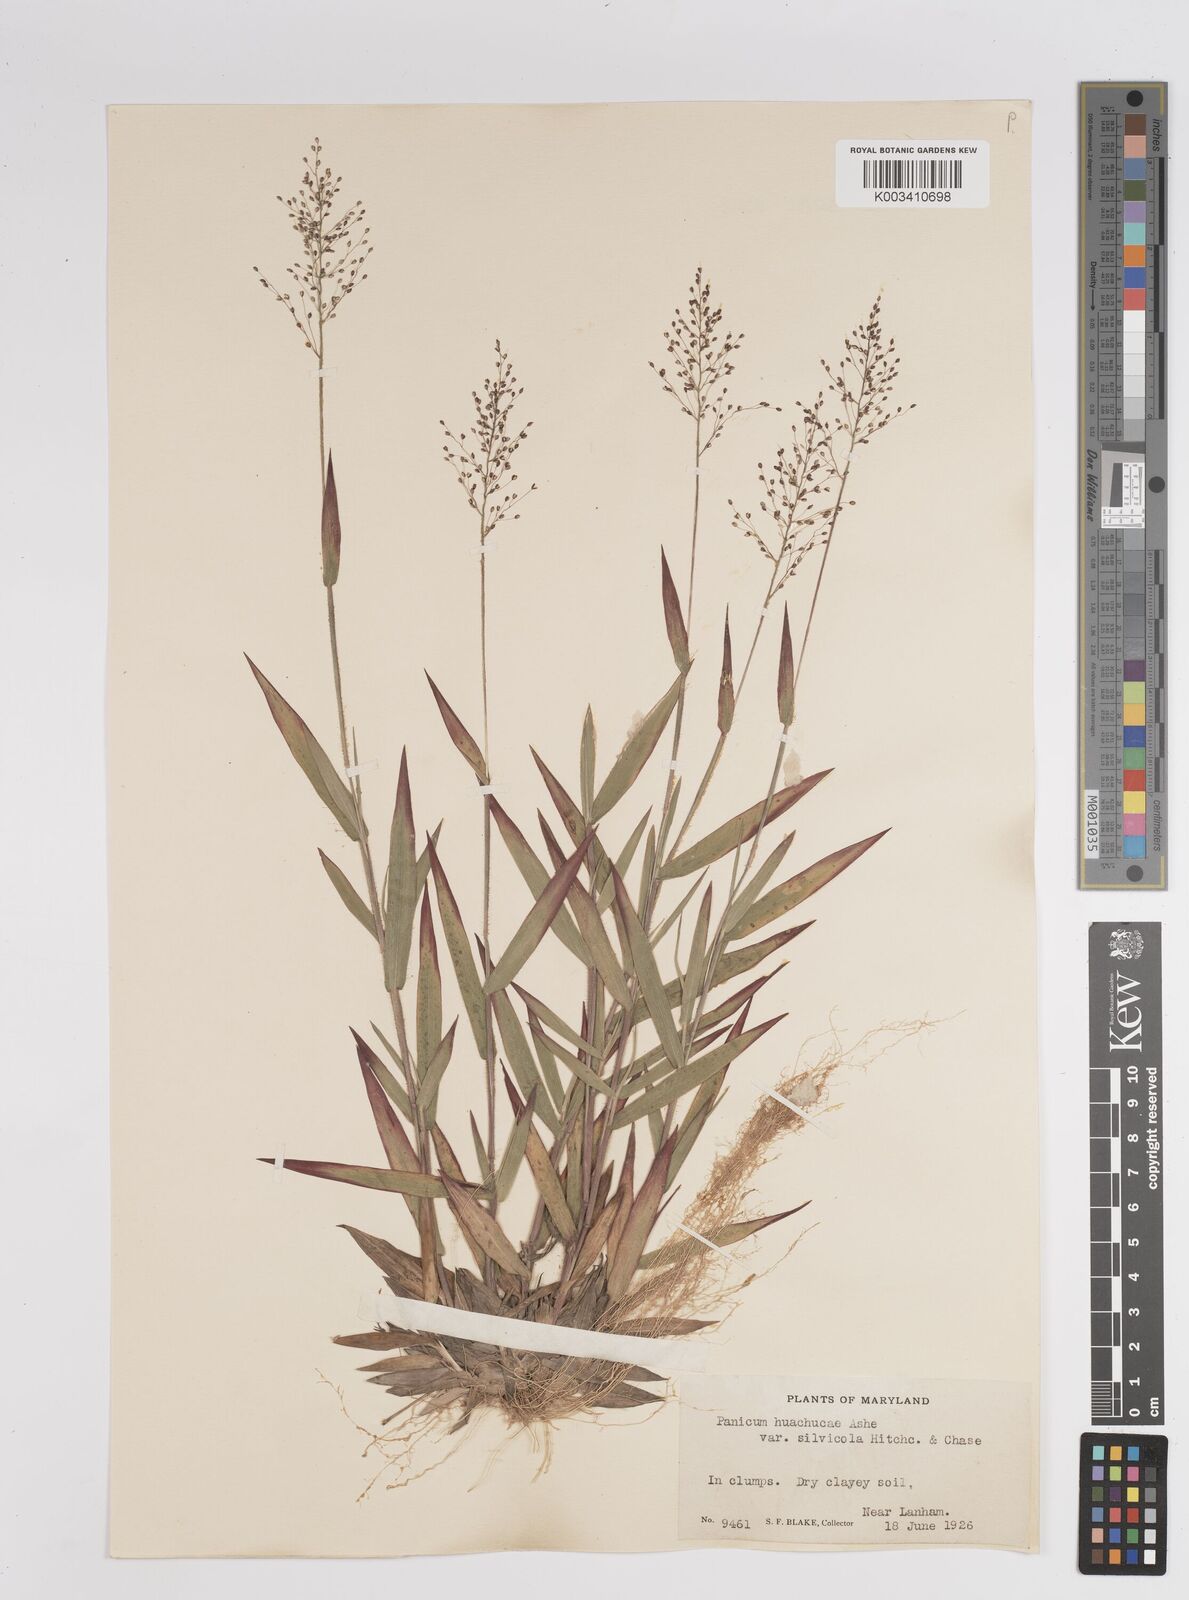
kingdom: Plantae
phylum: Tracheophyta
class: Liliopsida
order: Poales
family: Poaceae
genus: Dichanthelium
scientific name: Dichanthelium lanuginosum
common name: Woolly panicgrass
